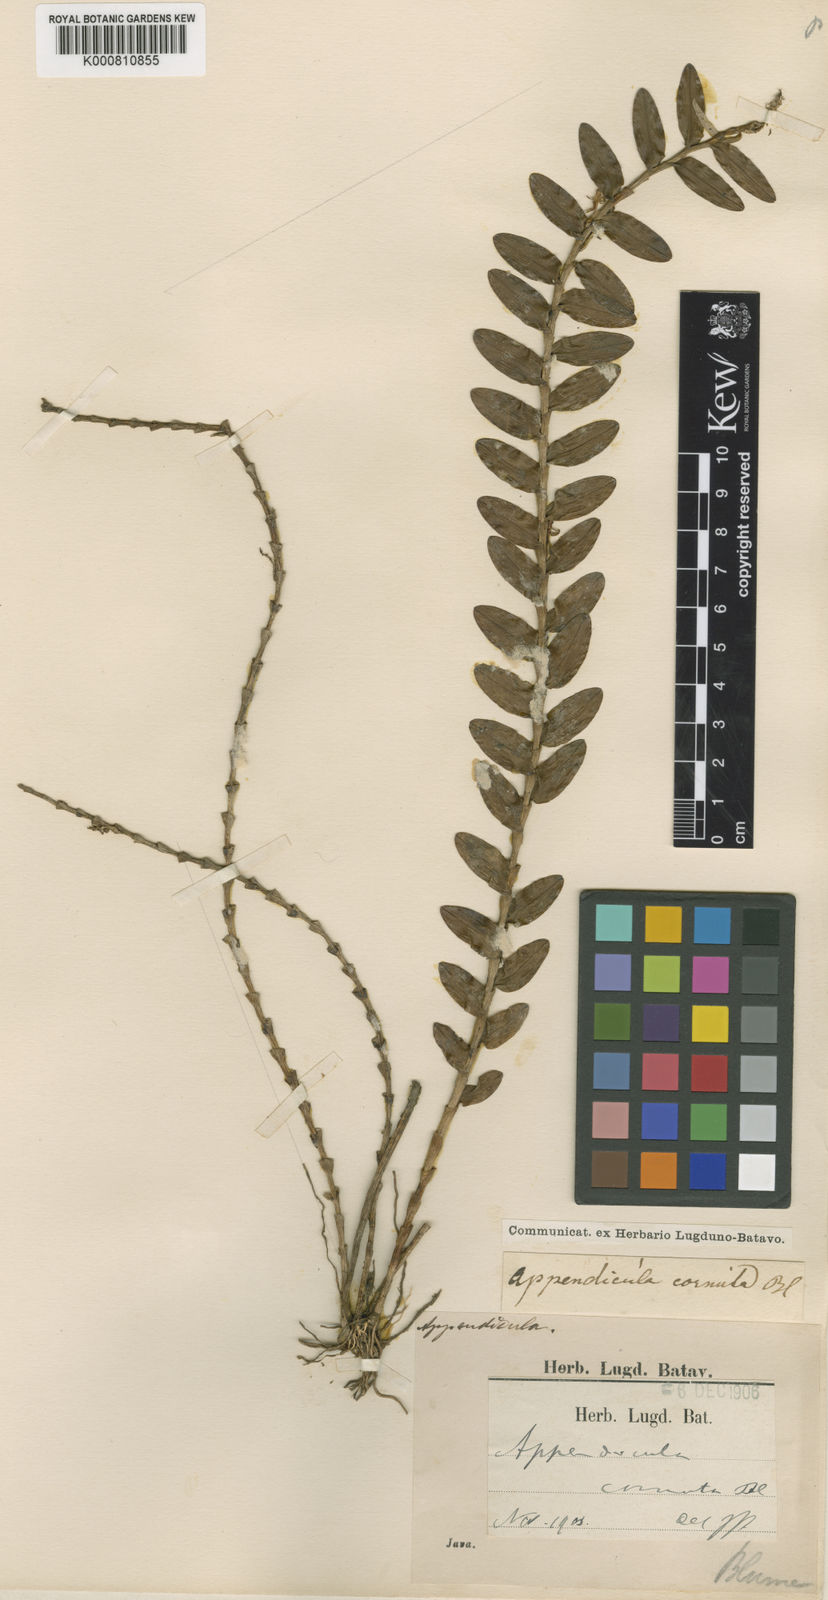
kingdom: Plantae
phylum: Tracheophyta
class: Liliopsida
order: Asparagales
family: Orchidaceae
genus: Appendicula
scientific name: Appendicula cornuta
